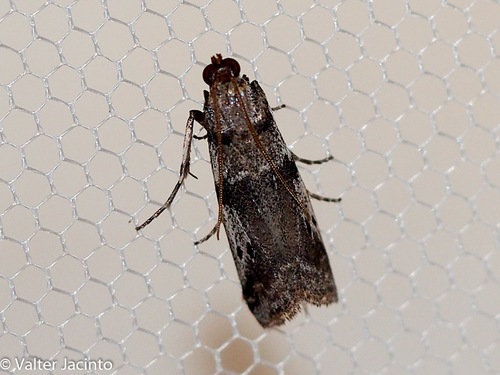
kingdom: Animalia
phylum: Arthropoda
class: Insecta
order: Lepidoptera
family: Pyralidae
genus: Ephestia
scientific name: Ephestia welseriella
